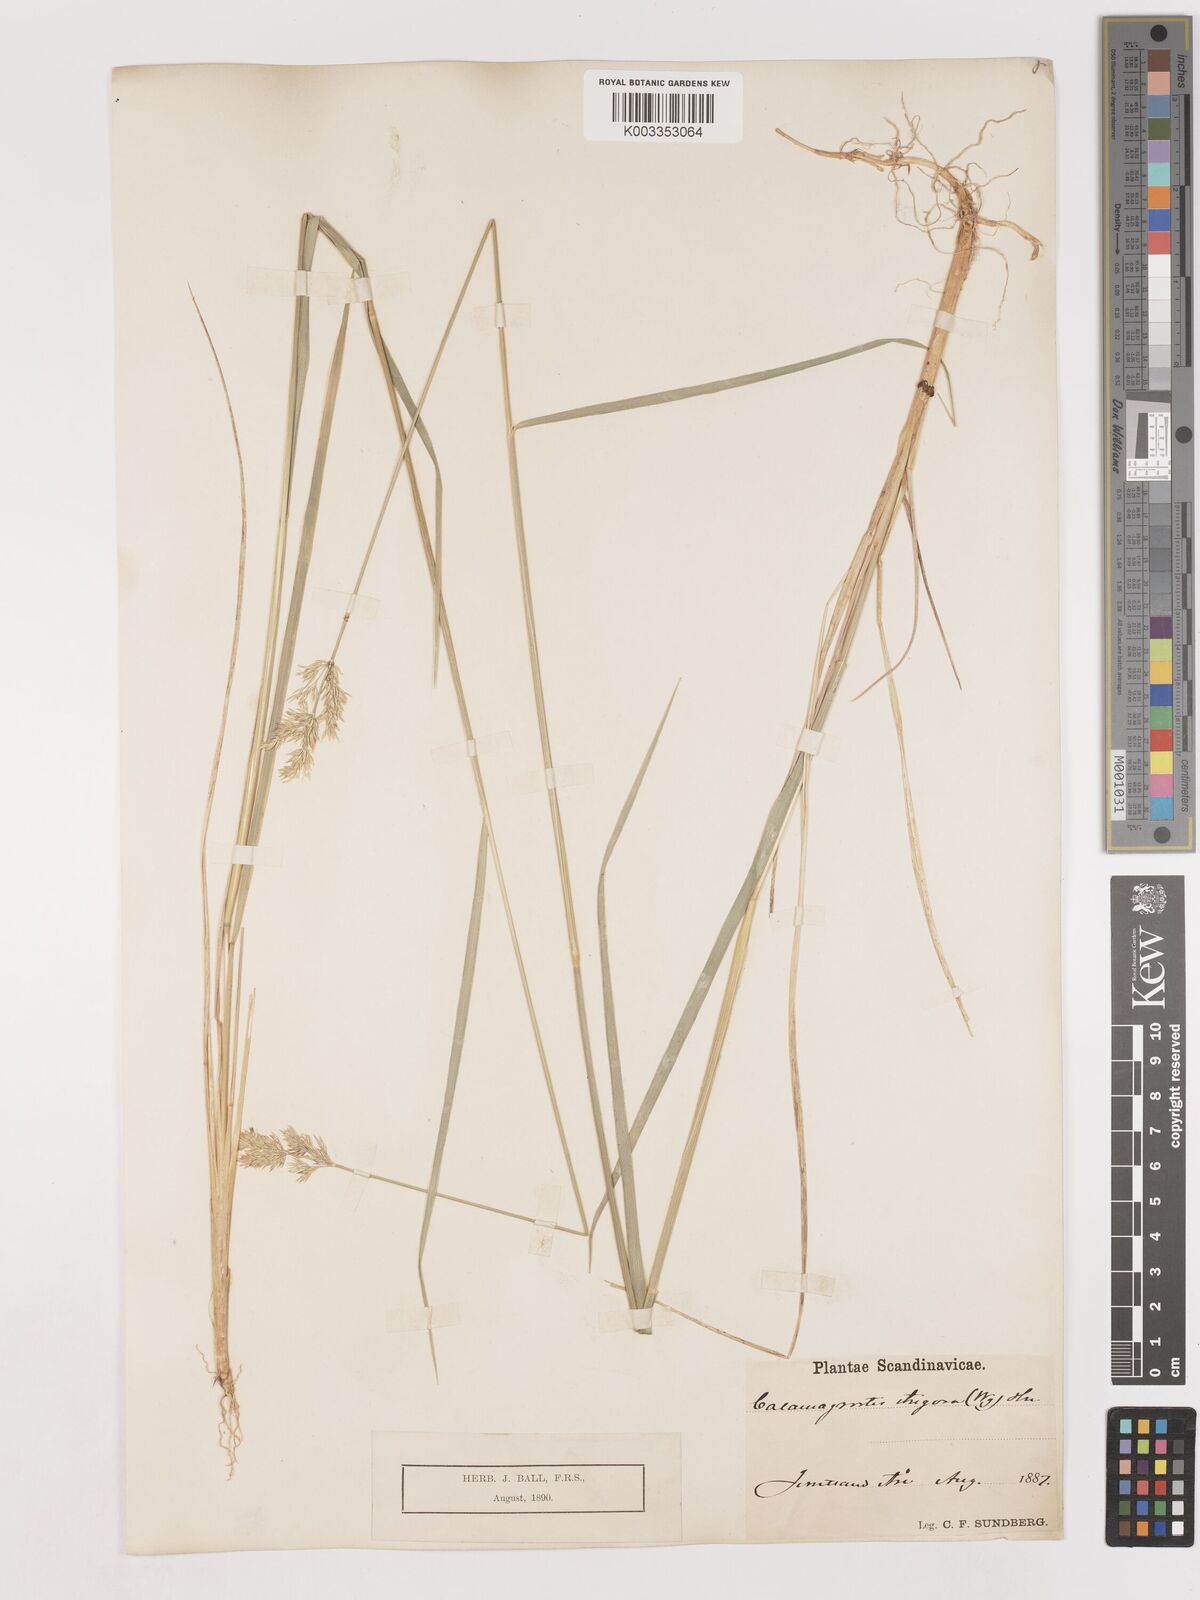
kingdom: Plantae
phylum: Tracheophyta
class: Liliopsida
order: Poales
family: Poaceae
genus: Calamagrostis
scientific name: Calamagrostis epigejos
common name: Wood small-reed
